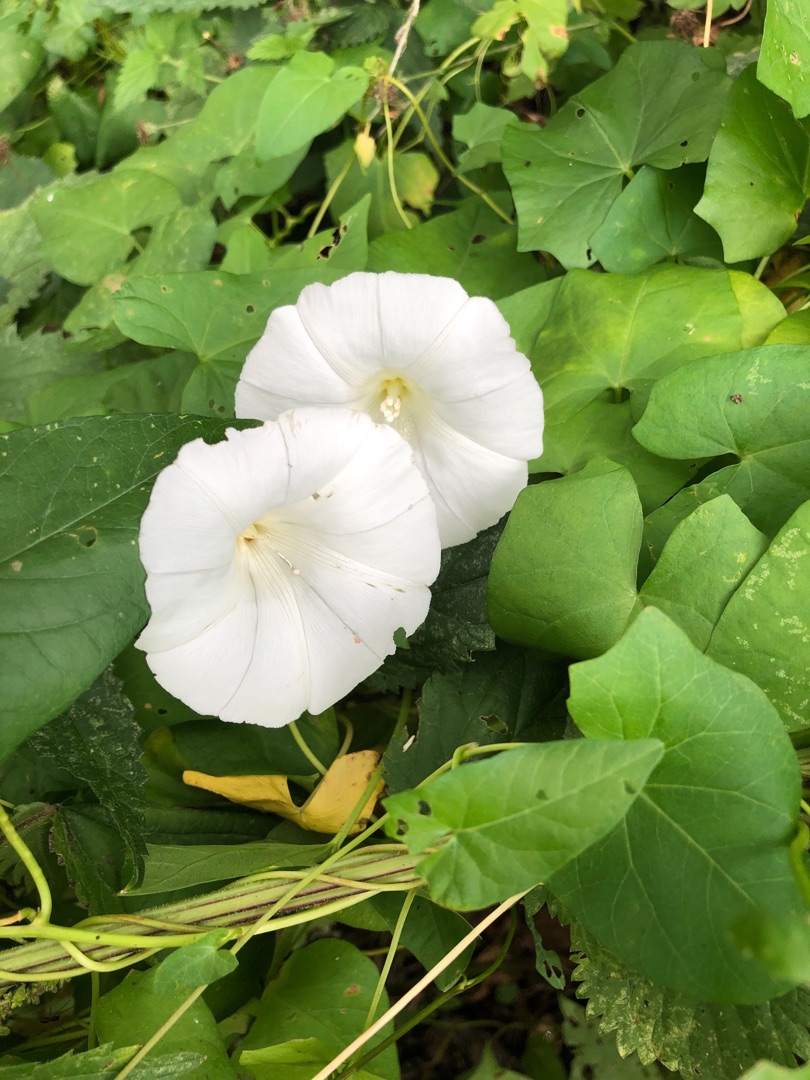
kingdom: Plantae
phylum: Tracheophyta
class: Magnoliopsida
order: Solanales
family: Convolvulaceae
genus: Calystegia
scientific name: Calystegia sepium
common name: Gærde-snerle
